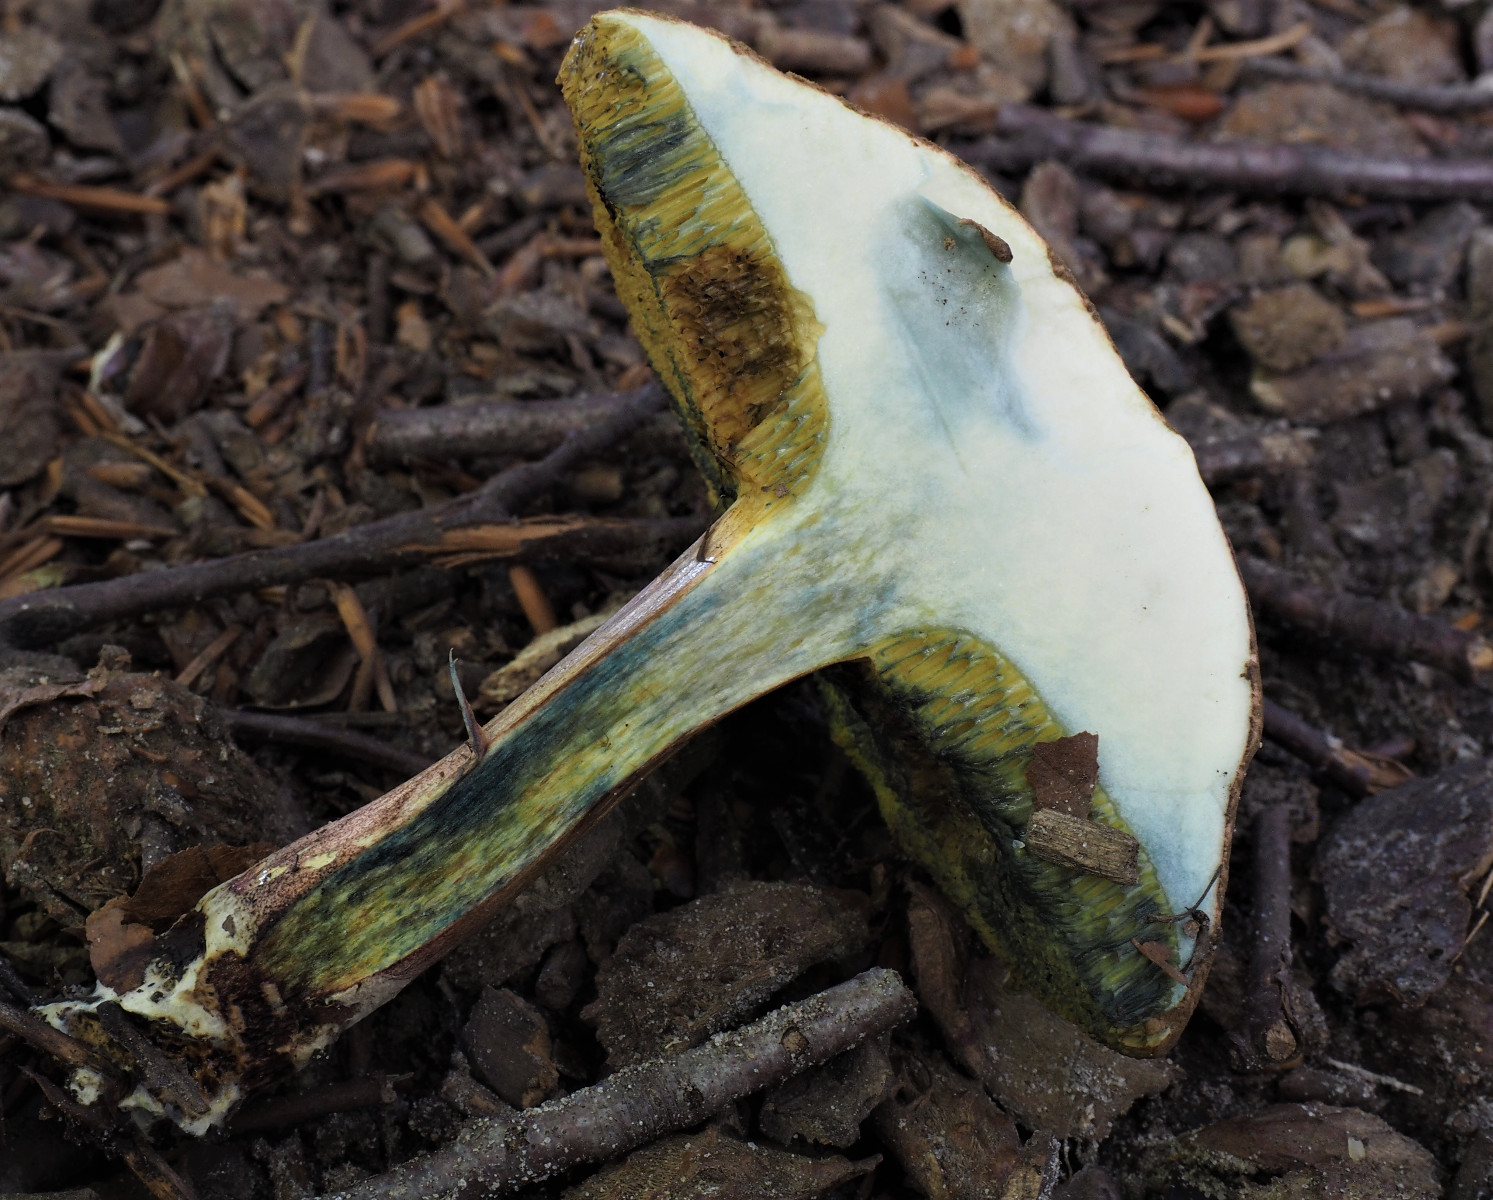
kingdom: Fungi
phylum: Basidiomycota
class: Agaricomycetes
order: Boletales
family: Boletaceae
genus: Xerocomellus
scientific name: Xerocomellus cisalpinus
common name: finsprukken rørhat
